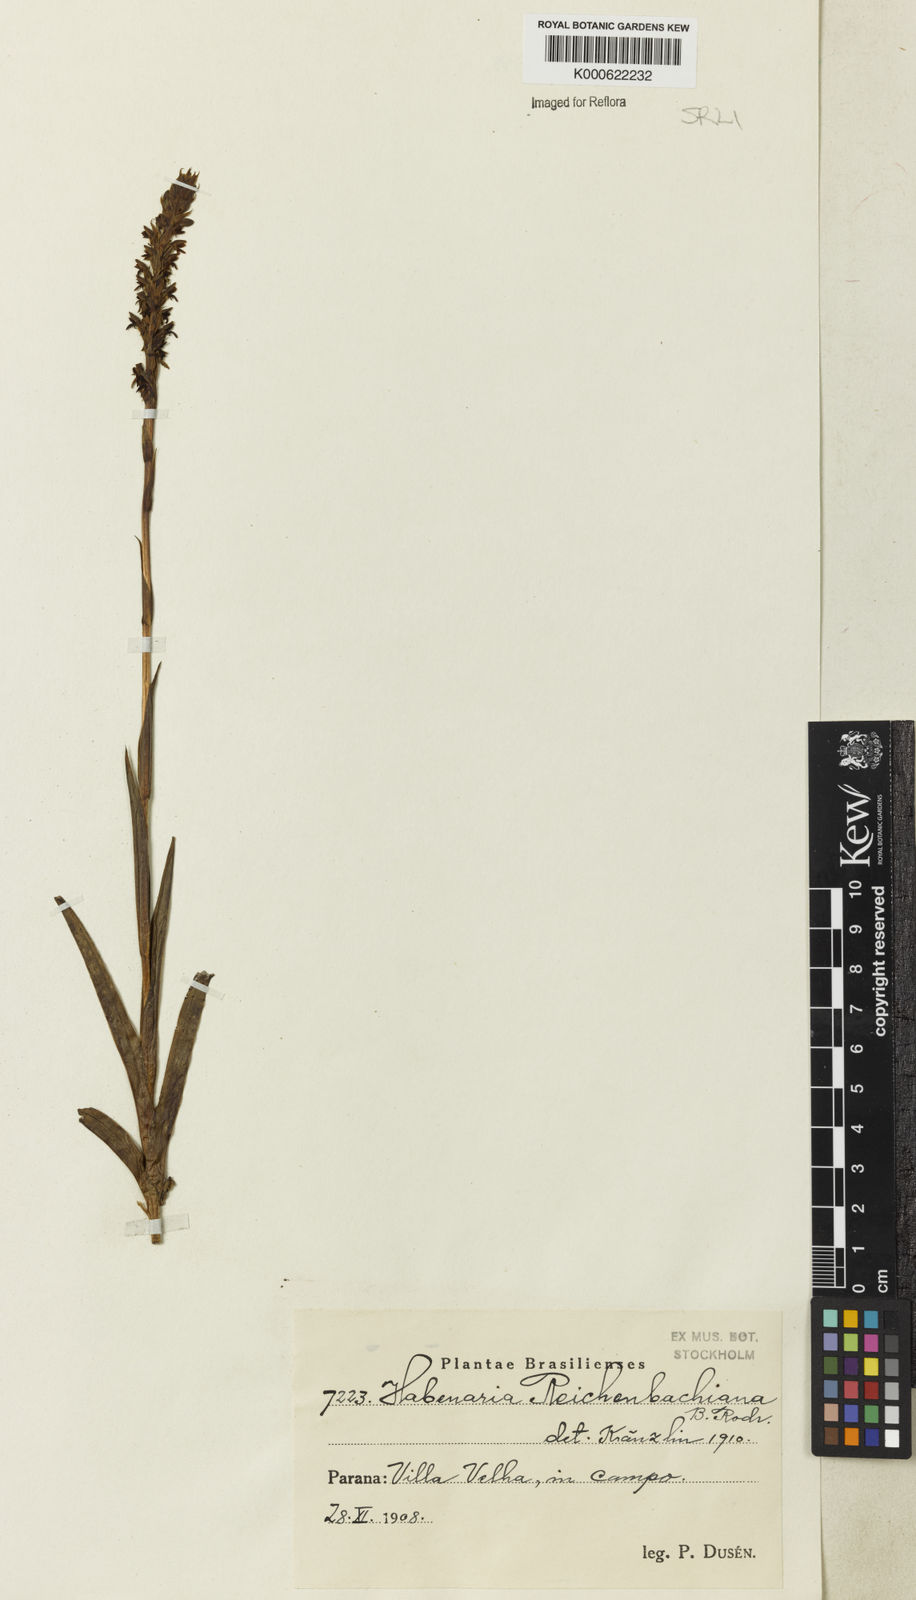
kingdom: Plantae
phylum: Tracheophyta
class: Liliopsida
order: Asparagales
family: Orchidaceae
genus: Habenaria
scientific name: Habenaria parviflora
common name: Small flowered habenaria
